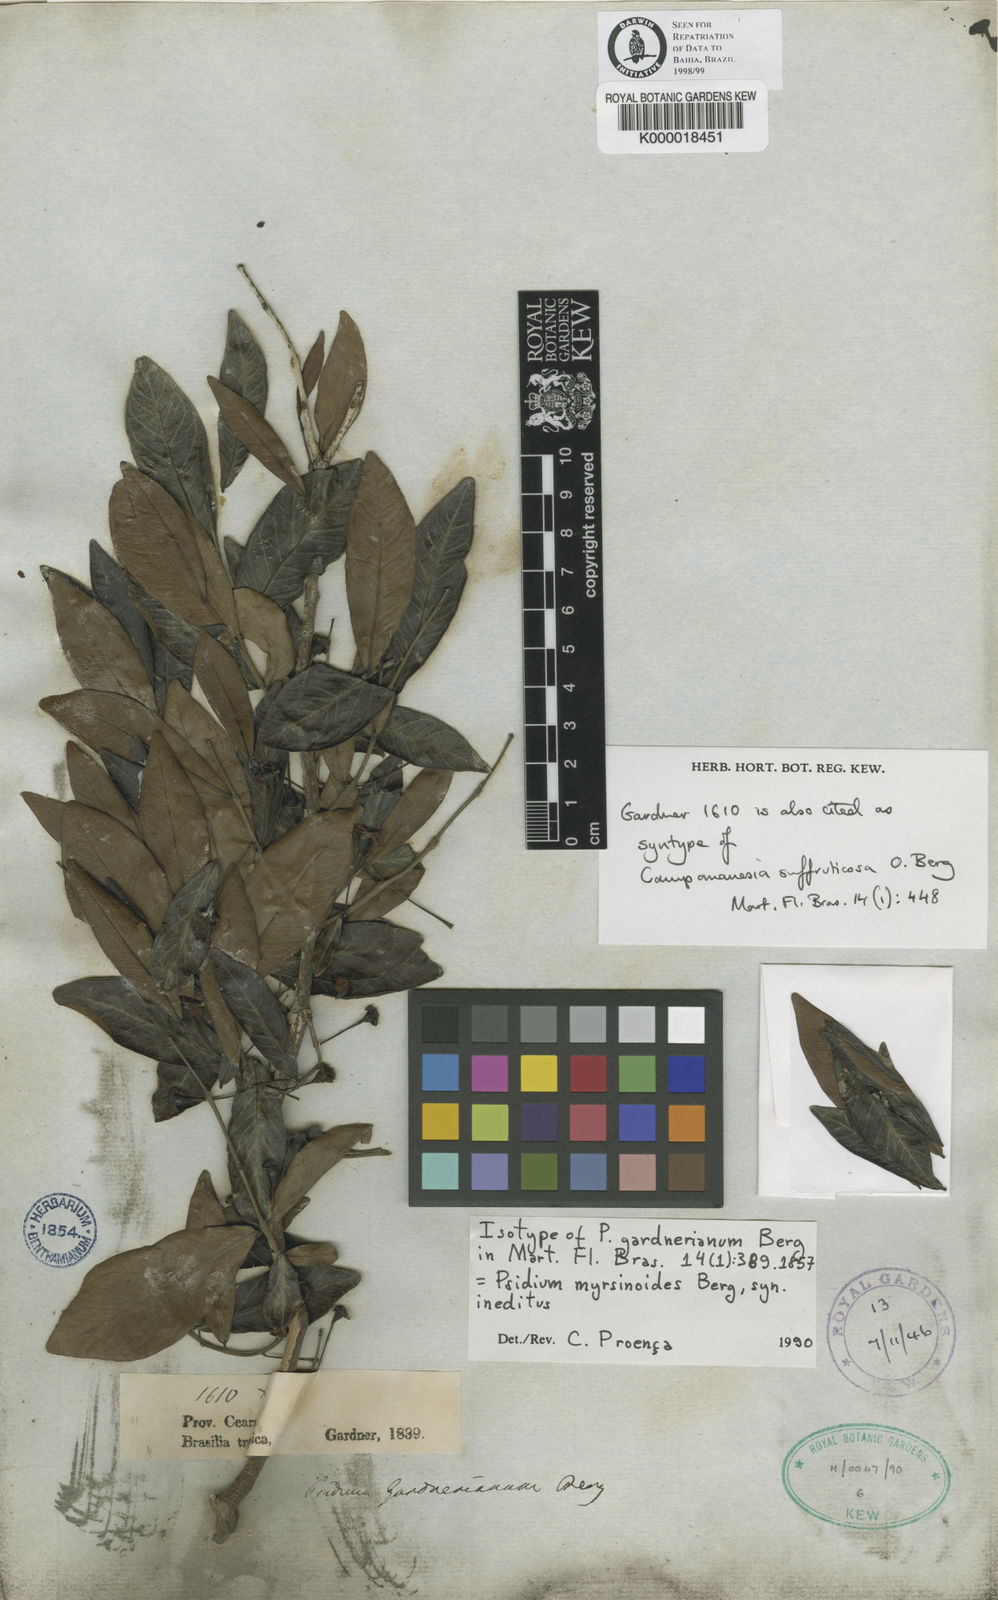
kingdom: Plantae
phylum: Tracheophyta
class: Magnoliopsida
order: Myrtales
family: Myrtaceae
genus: Psidium
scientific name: Psidium myrtoides
